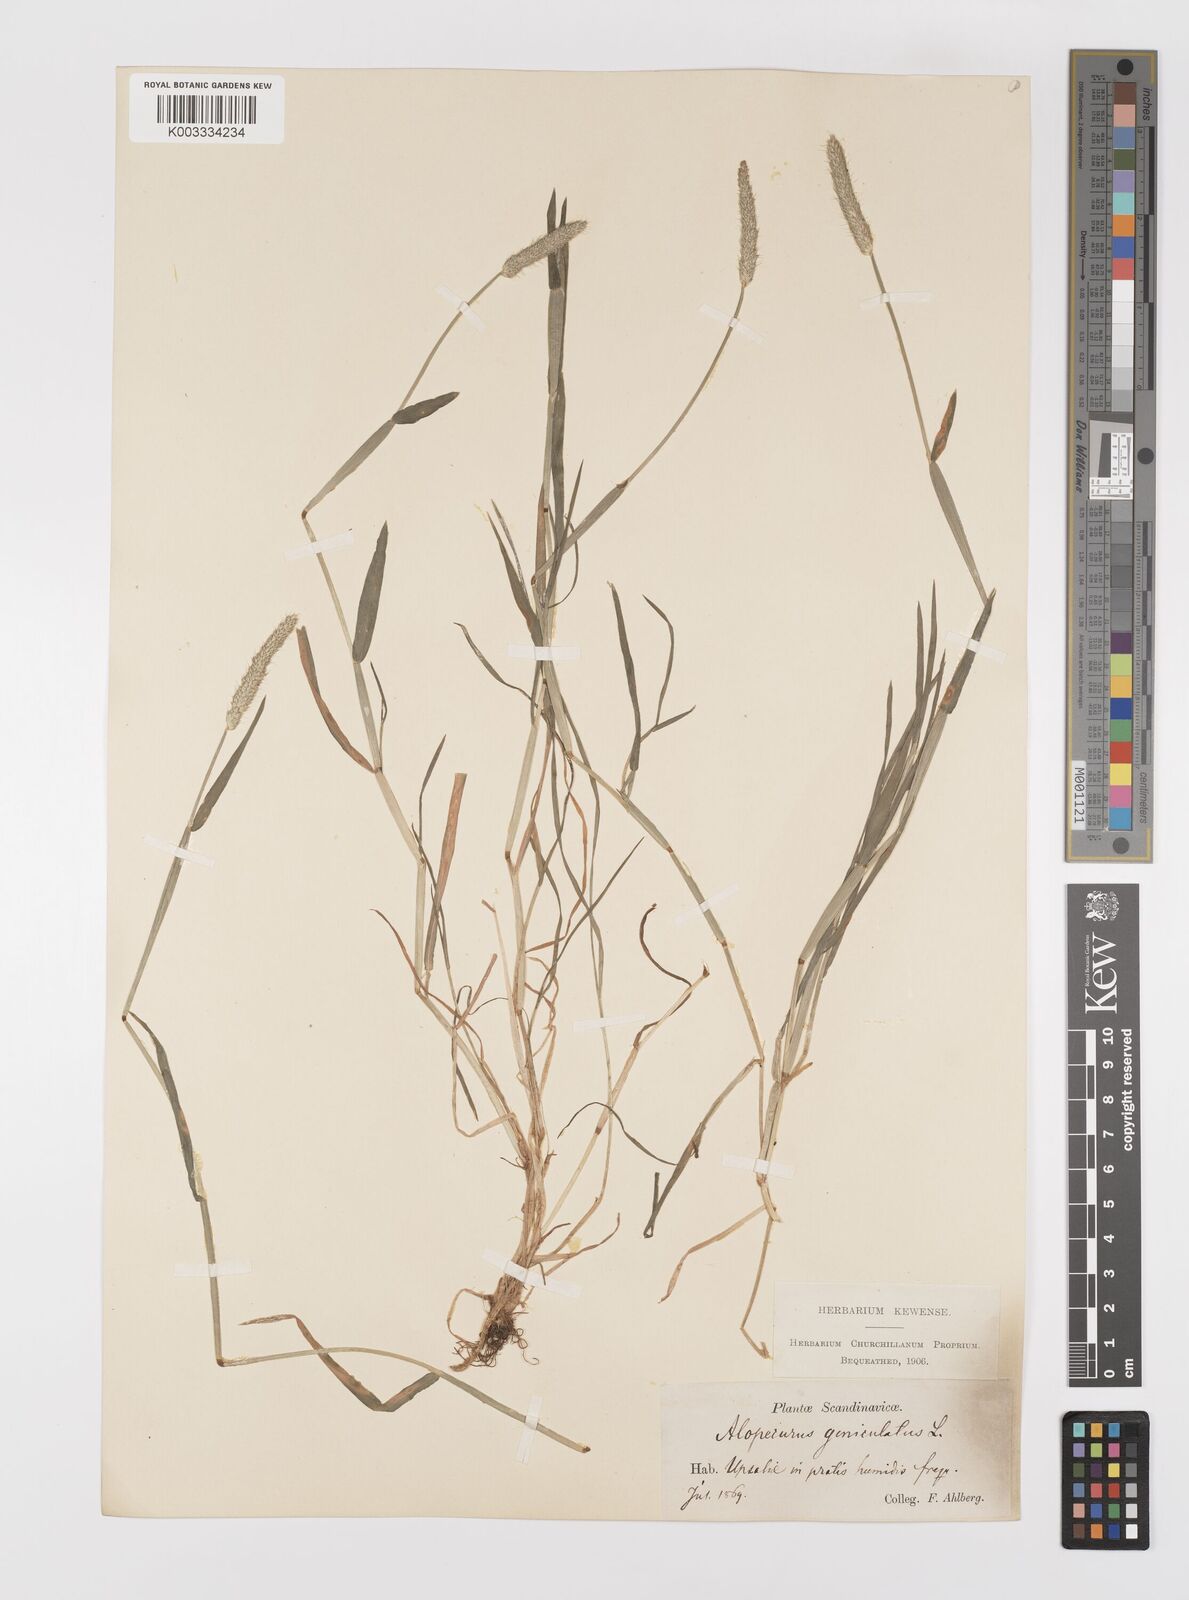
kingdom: Plantae
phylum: Tracheophyta
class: Liliopsida
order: Poales
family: Poaceae
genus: Alopecurus
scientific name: Alopecurus geniculatus
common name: Water foxtail
